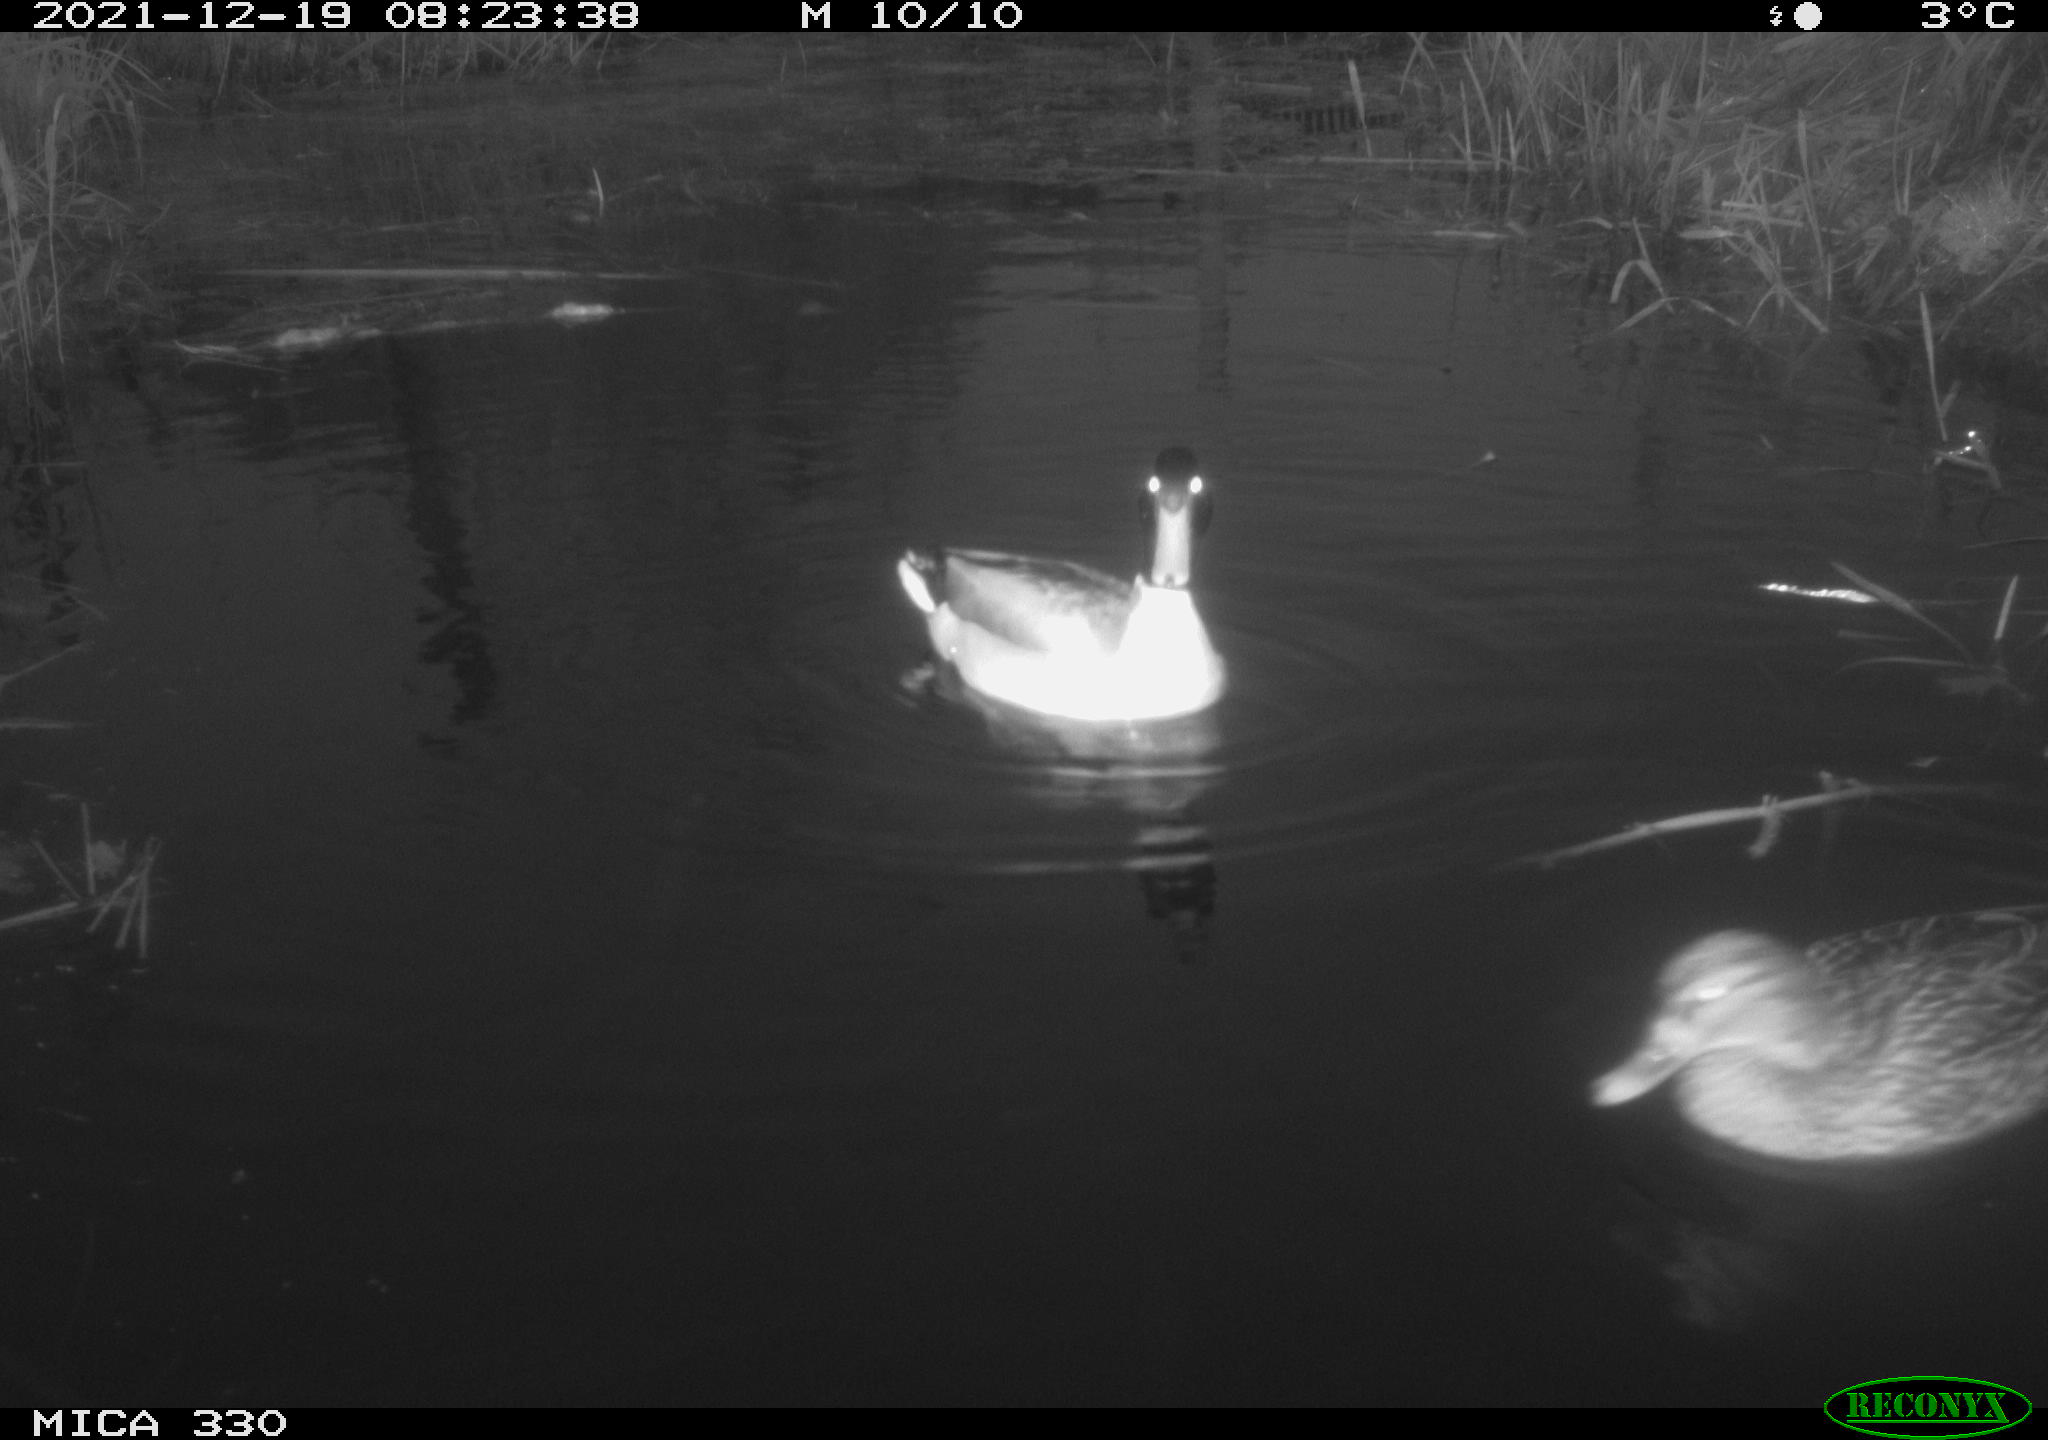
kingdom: Animalia
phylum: Chordata
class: Aves
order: Anseriformes
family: Anatidae
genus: Anas
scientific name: Anas platyrhynchos
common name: Mallard
